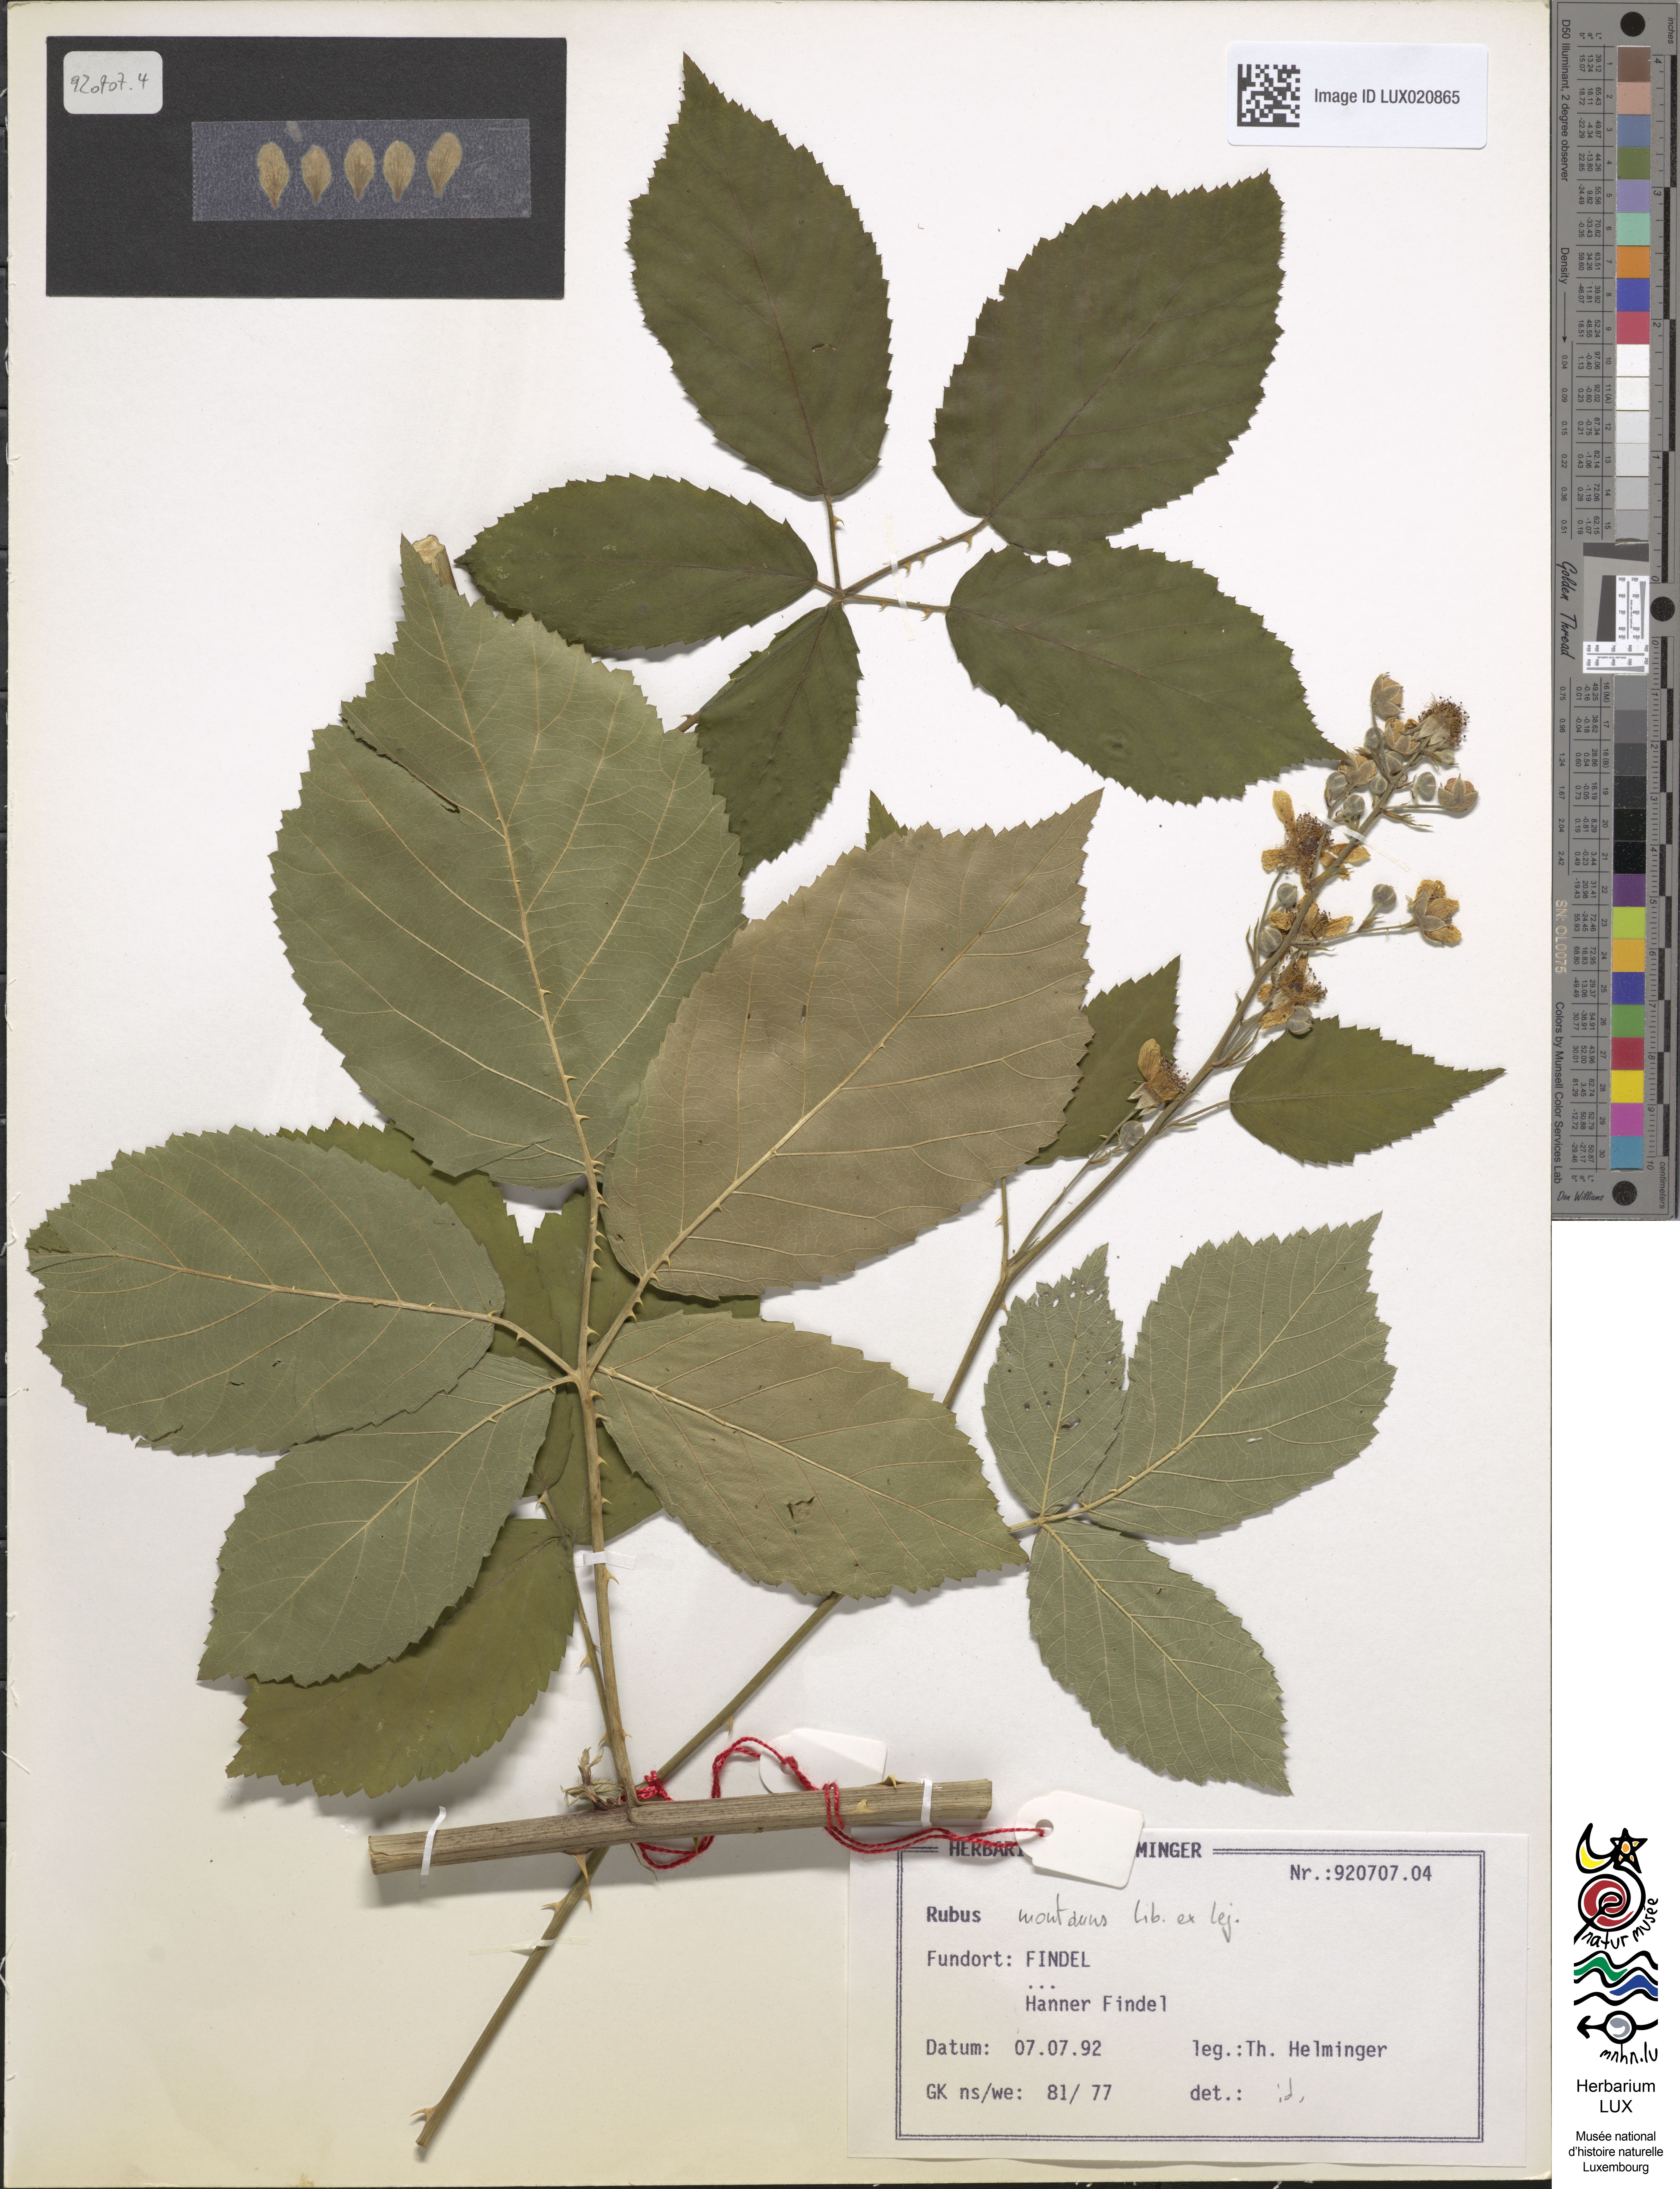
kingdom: Plantae
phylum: Tracheophyta
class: Magnoliopsida
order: Rosales
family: Rosaceae
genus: Rubus
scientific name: Rubus montanus
